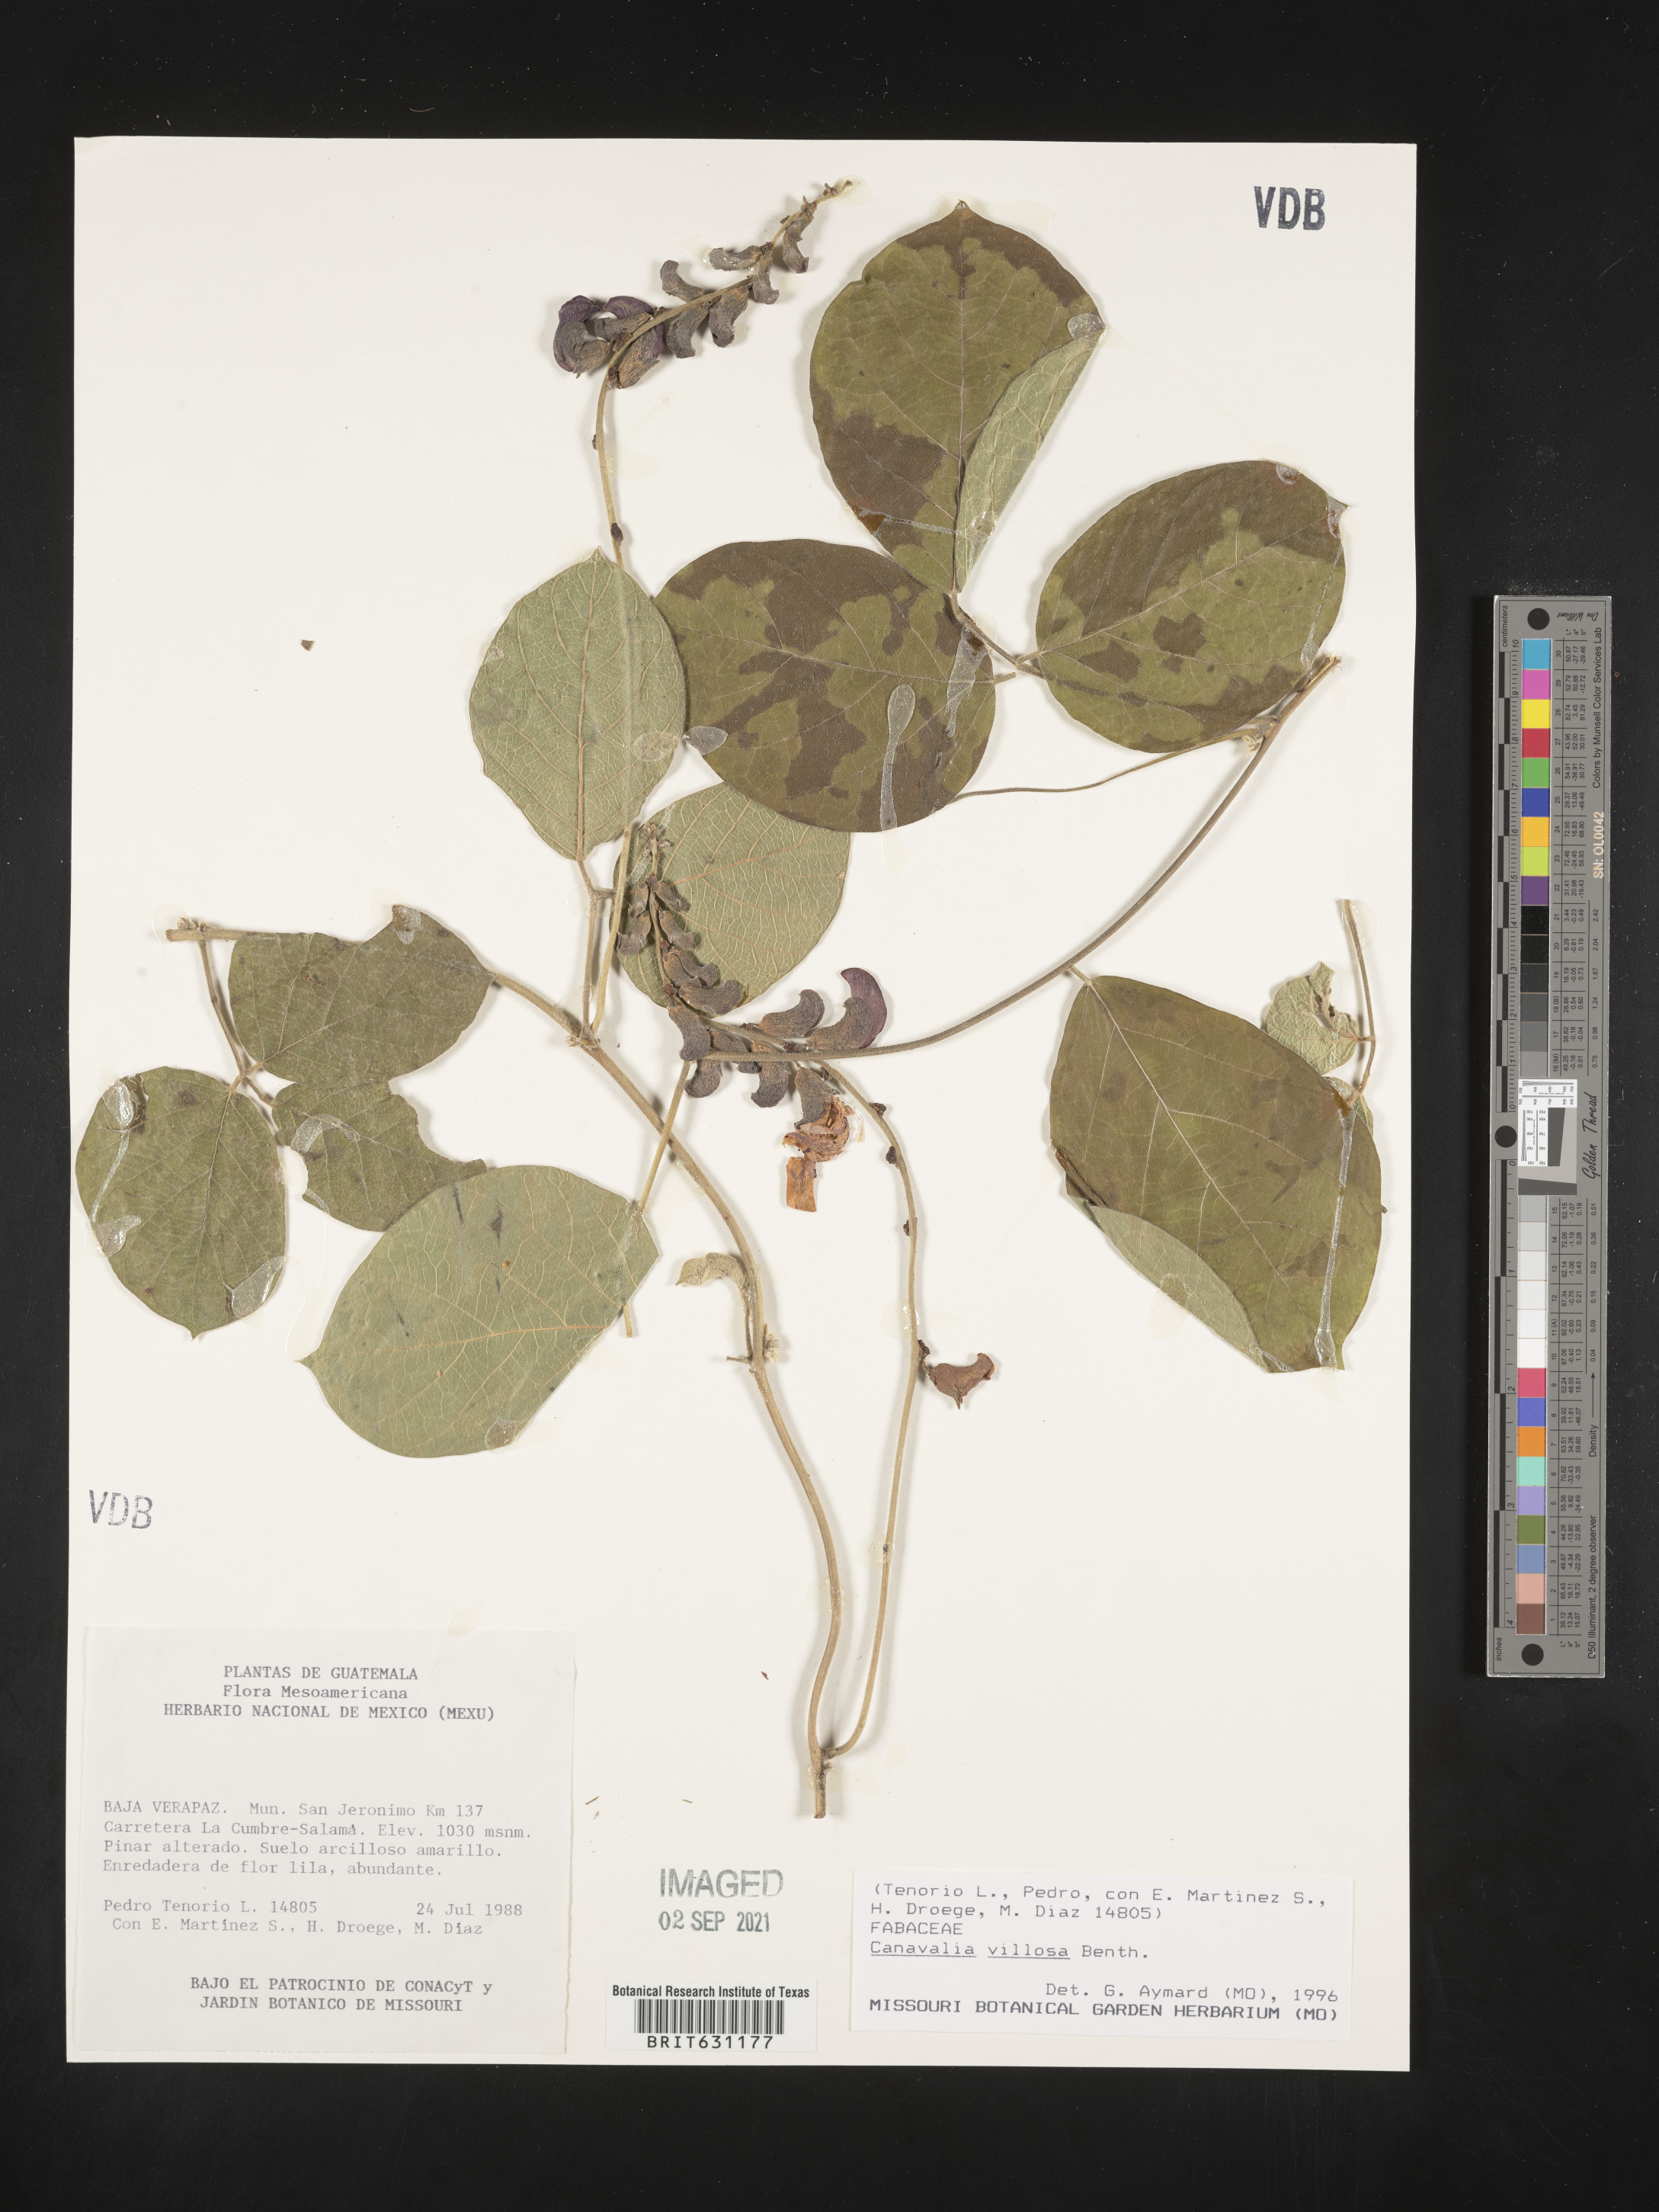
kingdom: Plantae
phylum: Tracheophyta
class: Magnoliopsida
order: Fabales
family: Fabaceae
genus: Canavalia
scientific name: Canavalia villosa
